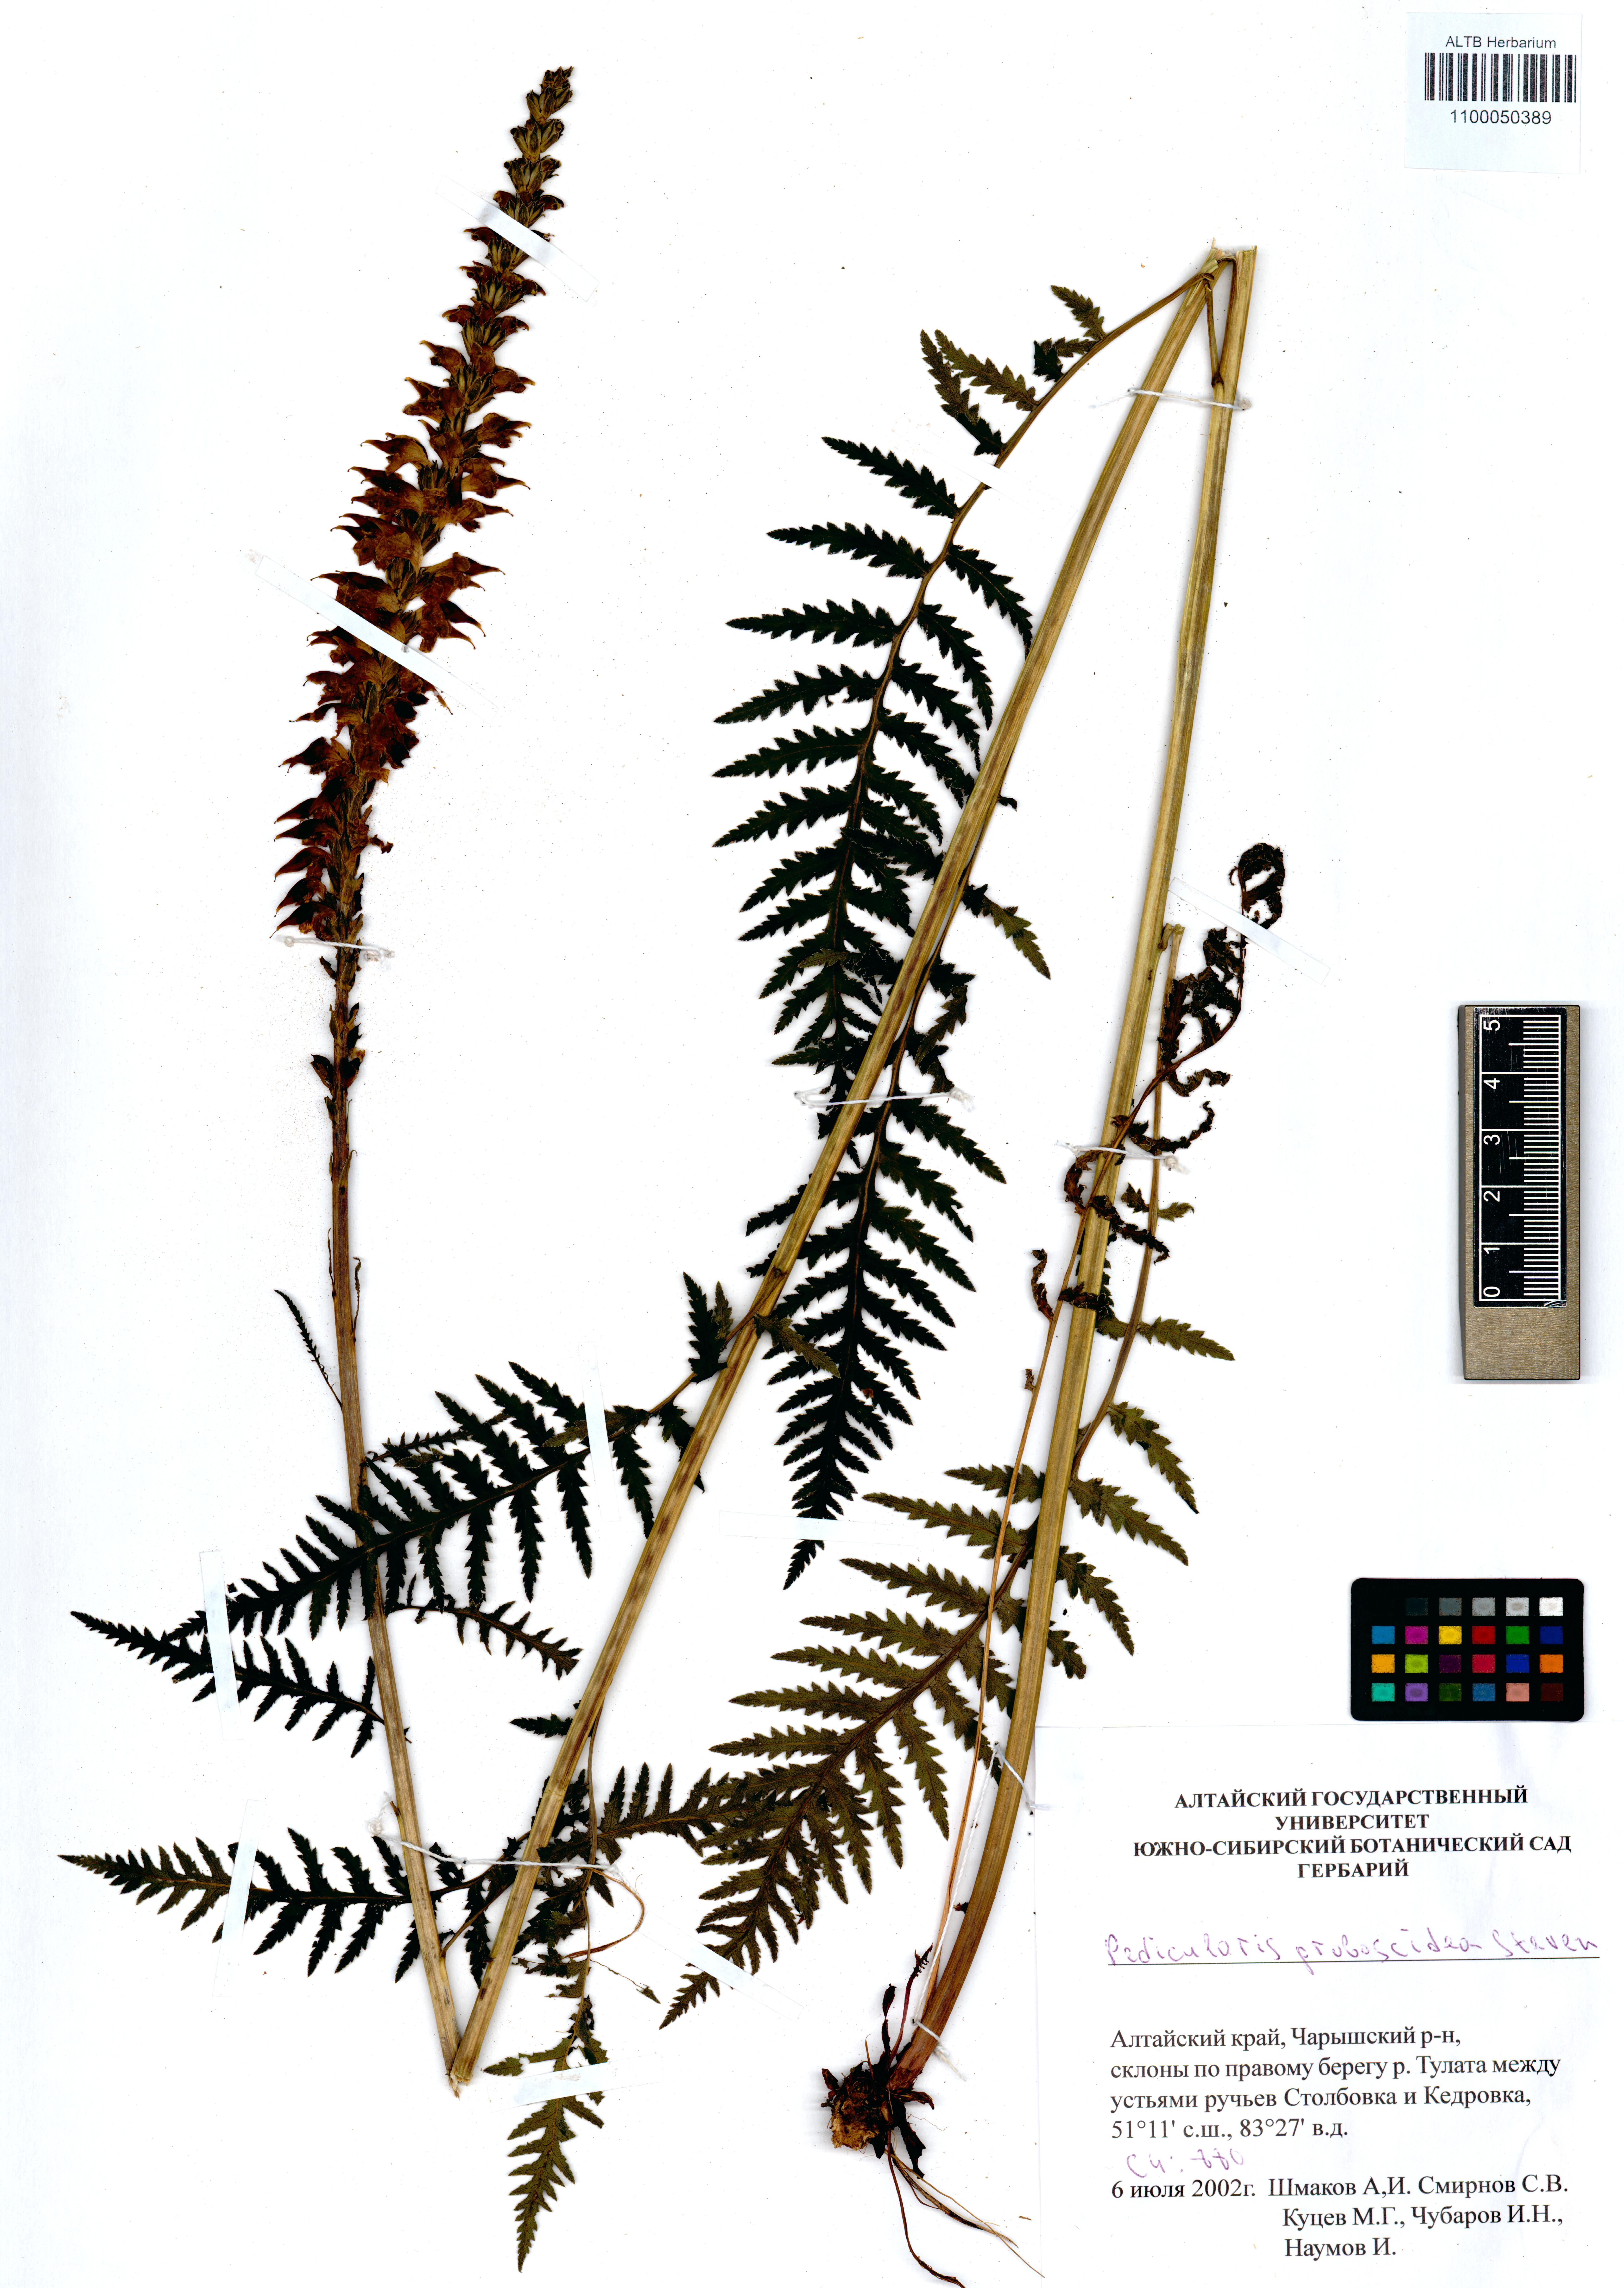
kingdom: Plantae
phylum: Tracheophyta
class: Magnoliopsida
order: Lamiales
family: Orobanchaceae
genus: Pedicularis
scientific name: Pedicularis proboscidea
